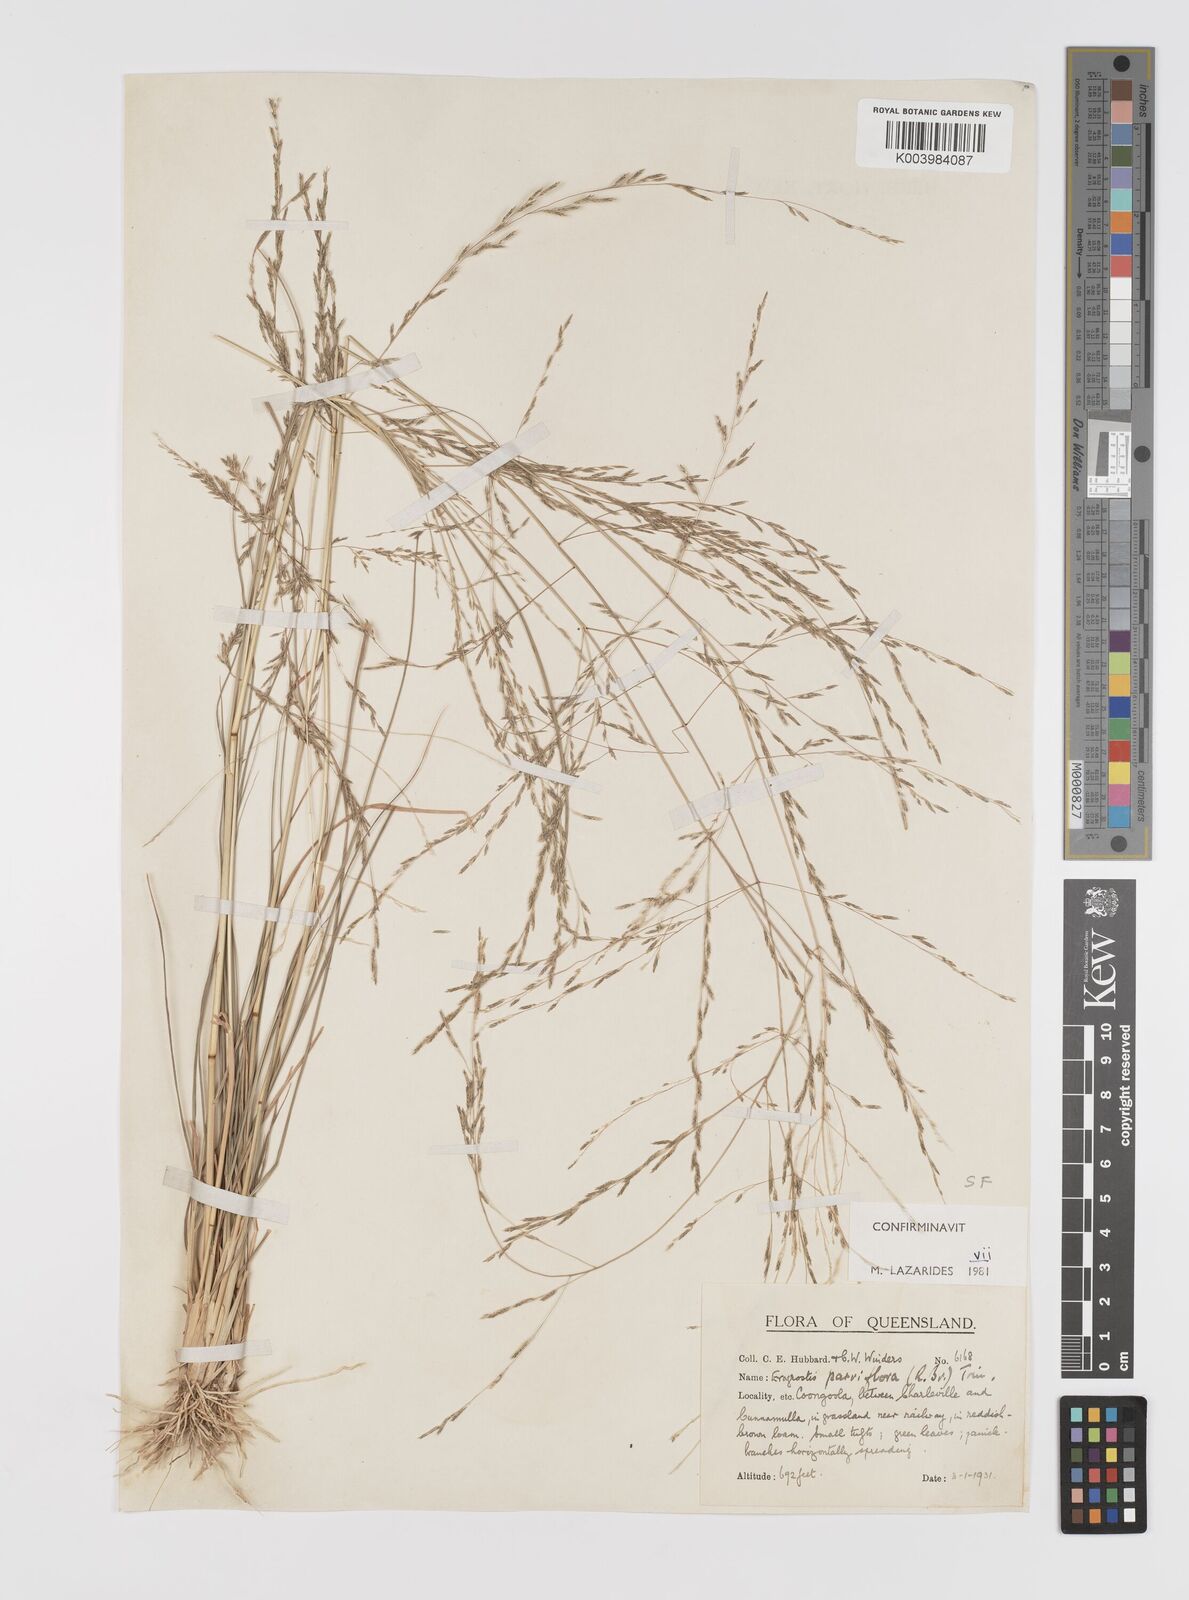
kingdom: Plantae
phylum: Tracheophyta
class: Liliopsida
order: Poales
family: Poaceae
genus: Eragrostis
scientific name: Eragrostis parviflora
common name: Weeping love-grass
